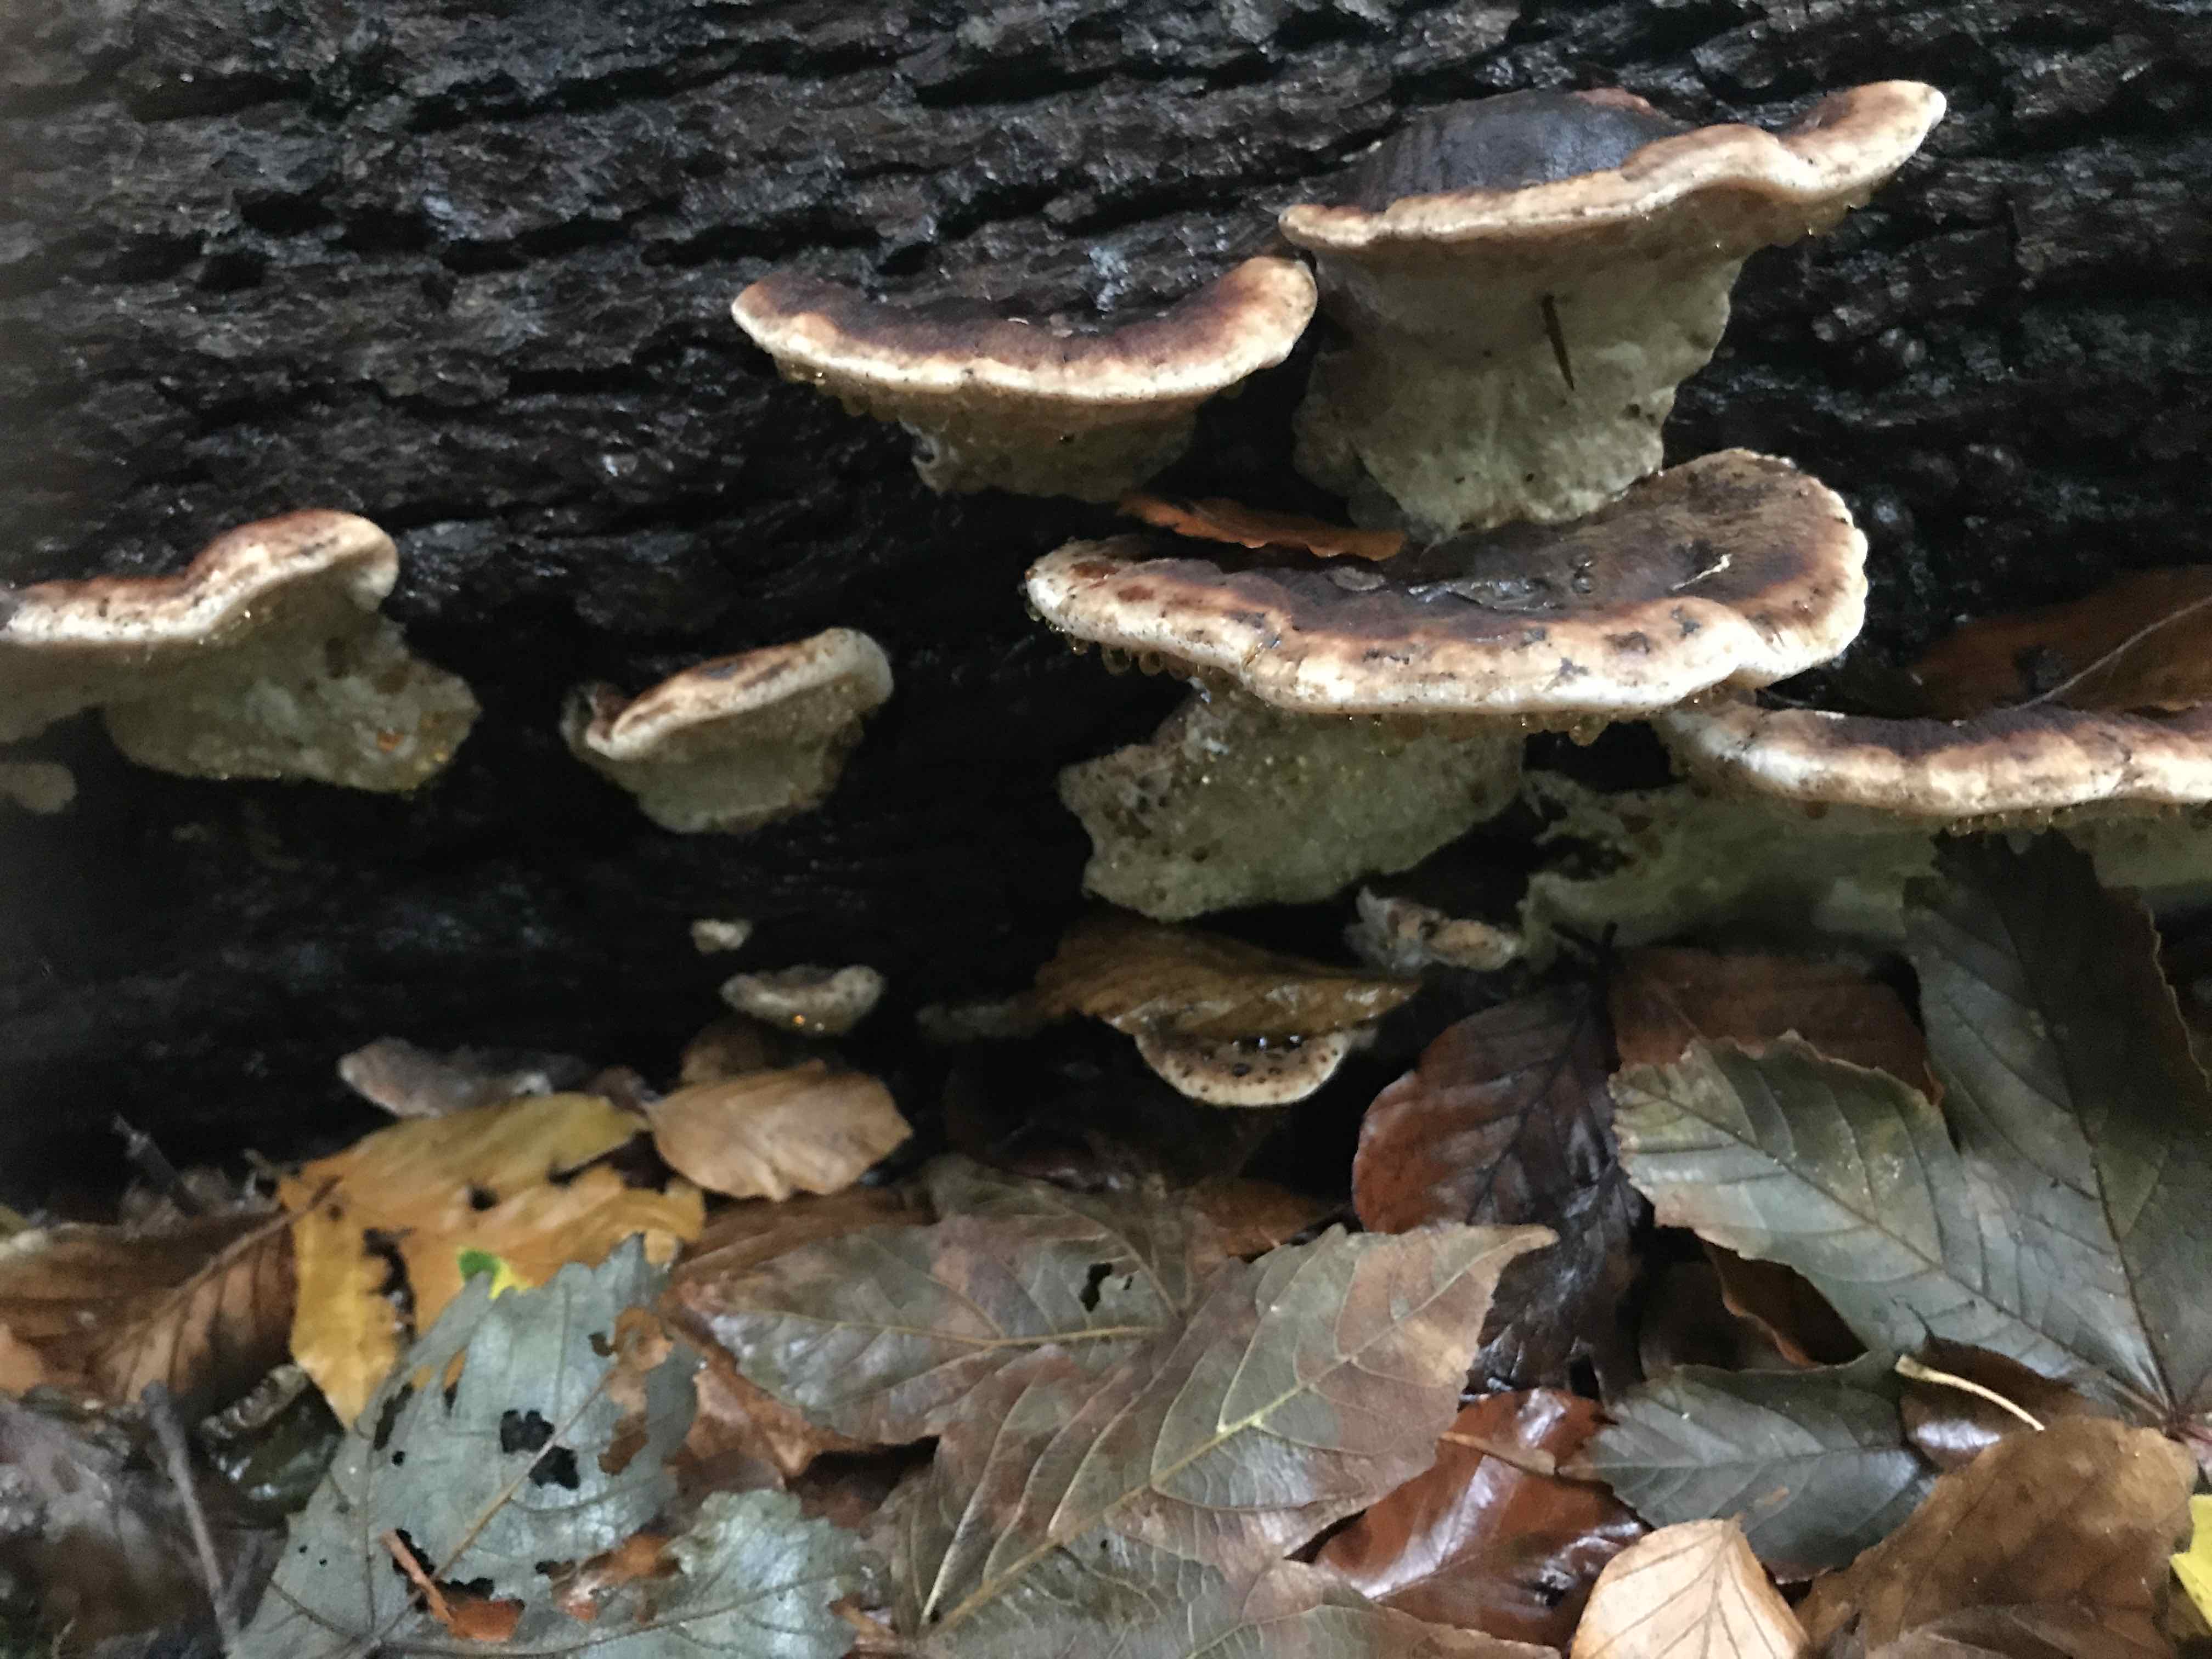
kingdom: Fungi
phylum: Basidiomycota
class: Agaricomycetes
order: Polyporales
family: Ischnodermataceae
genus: Ischnoderma
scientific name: Ischnoderma resinosum
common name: løv-tjæreporesvamp
